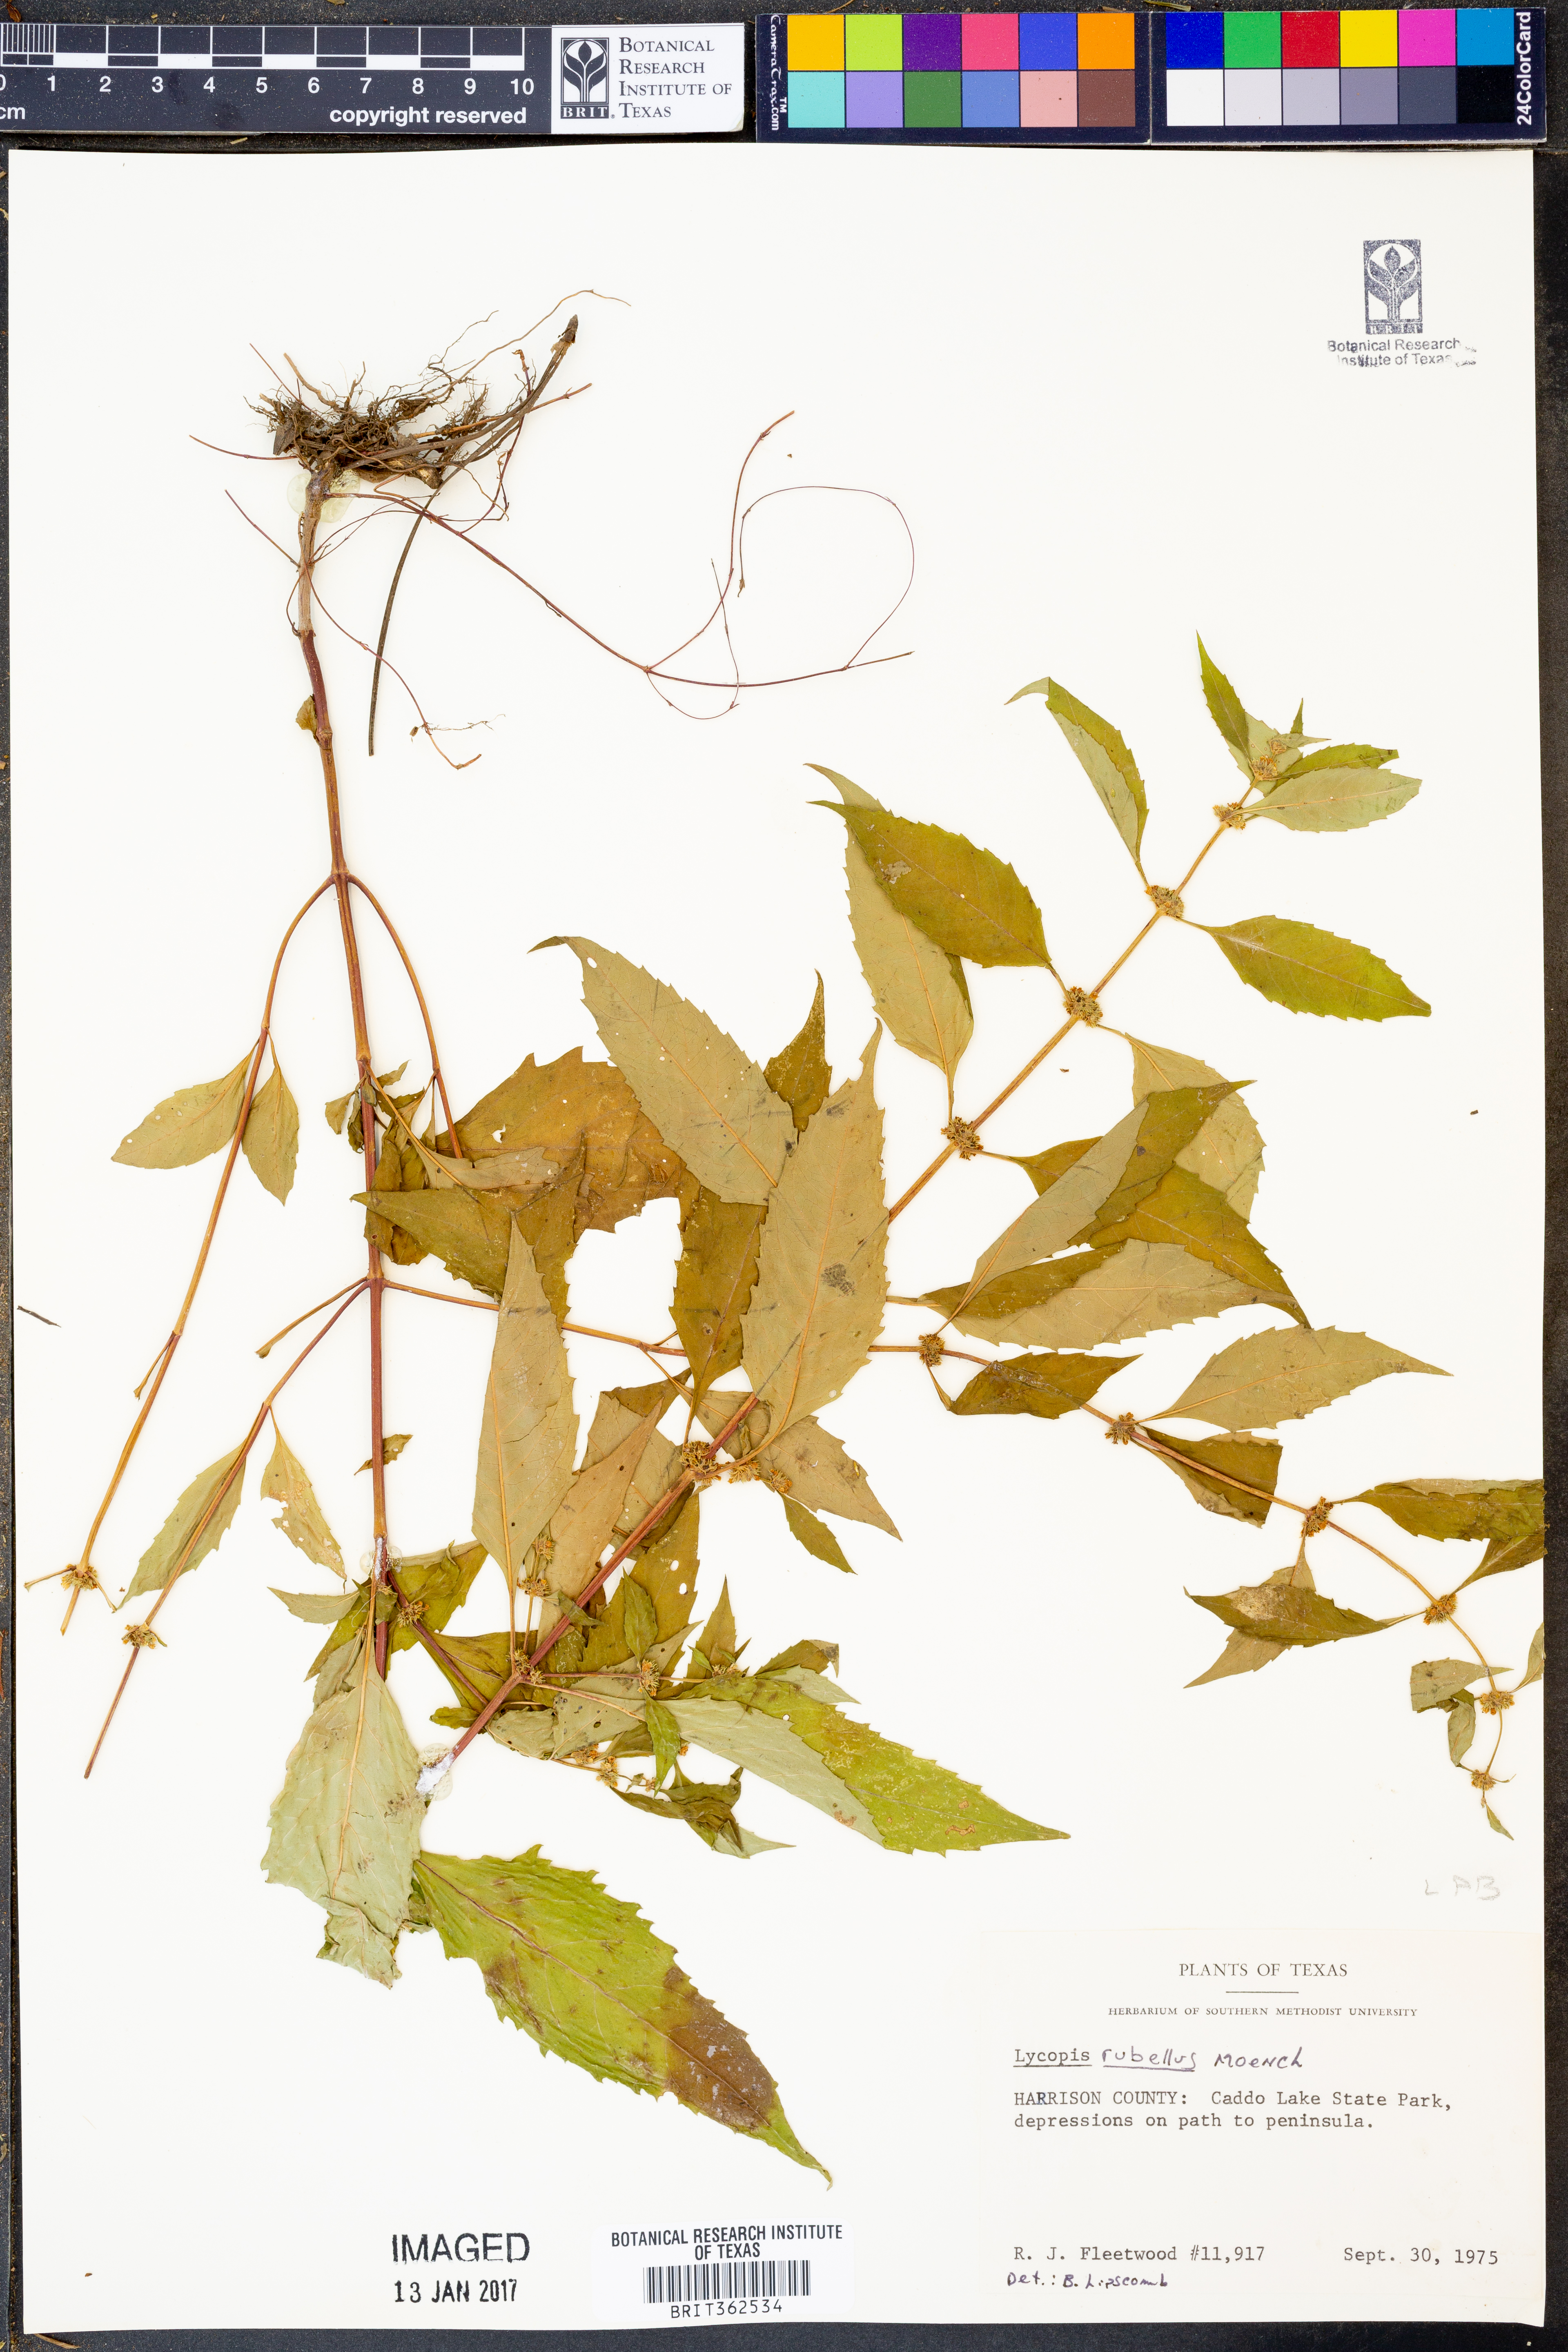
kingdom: Plantae
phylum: Tracheophyta
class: Magnoliopsida
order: Lamiales
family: Lamiaceae
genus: Lycopus
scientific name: Lycopus rubellus
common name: Stalked bugleweed
